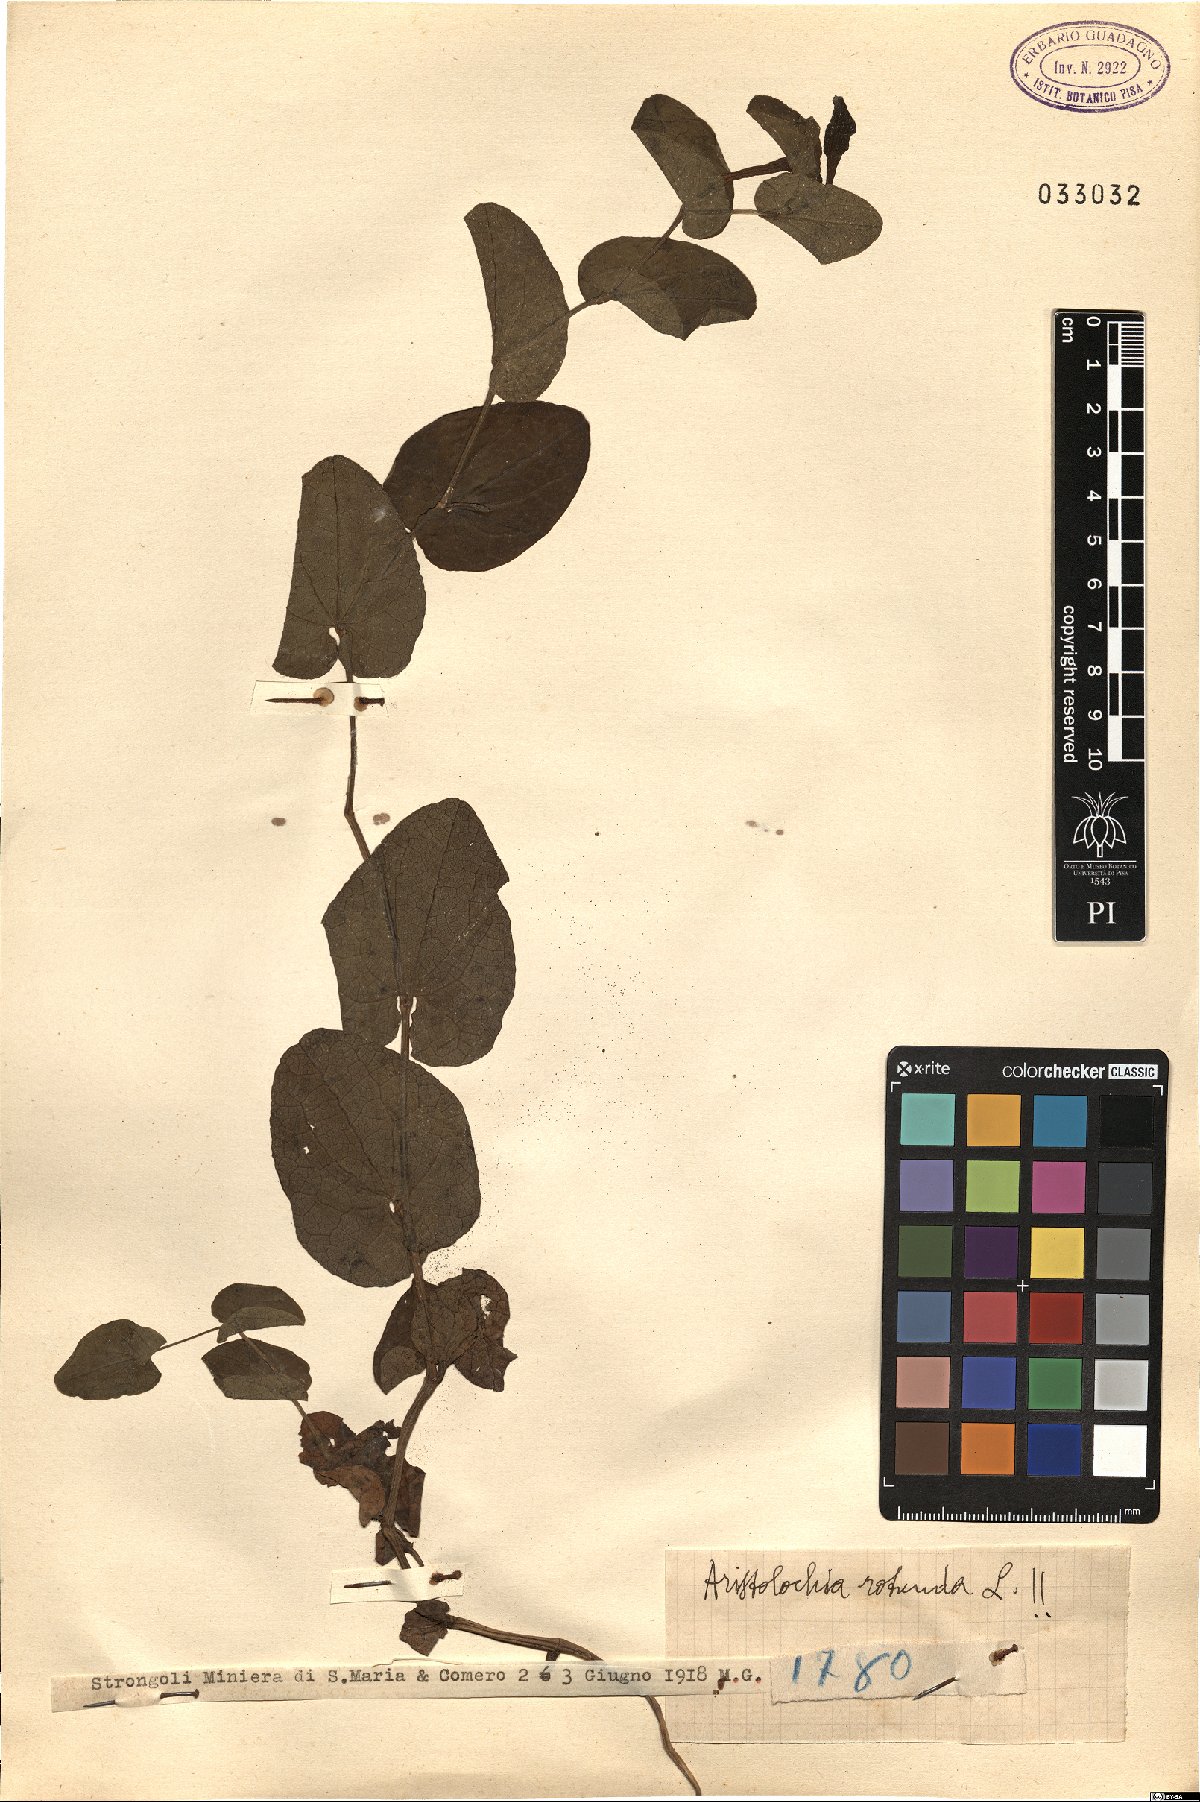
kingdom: Plantae
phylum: Tracheophyta
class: Magnoliopsida
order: Piperales
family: Aristolochiaceae
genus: Aristolochia
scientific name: Aristolochia rotunda
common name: Smearwort
